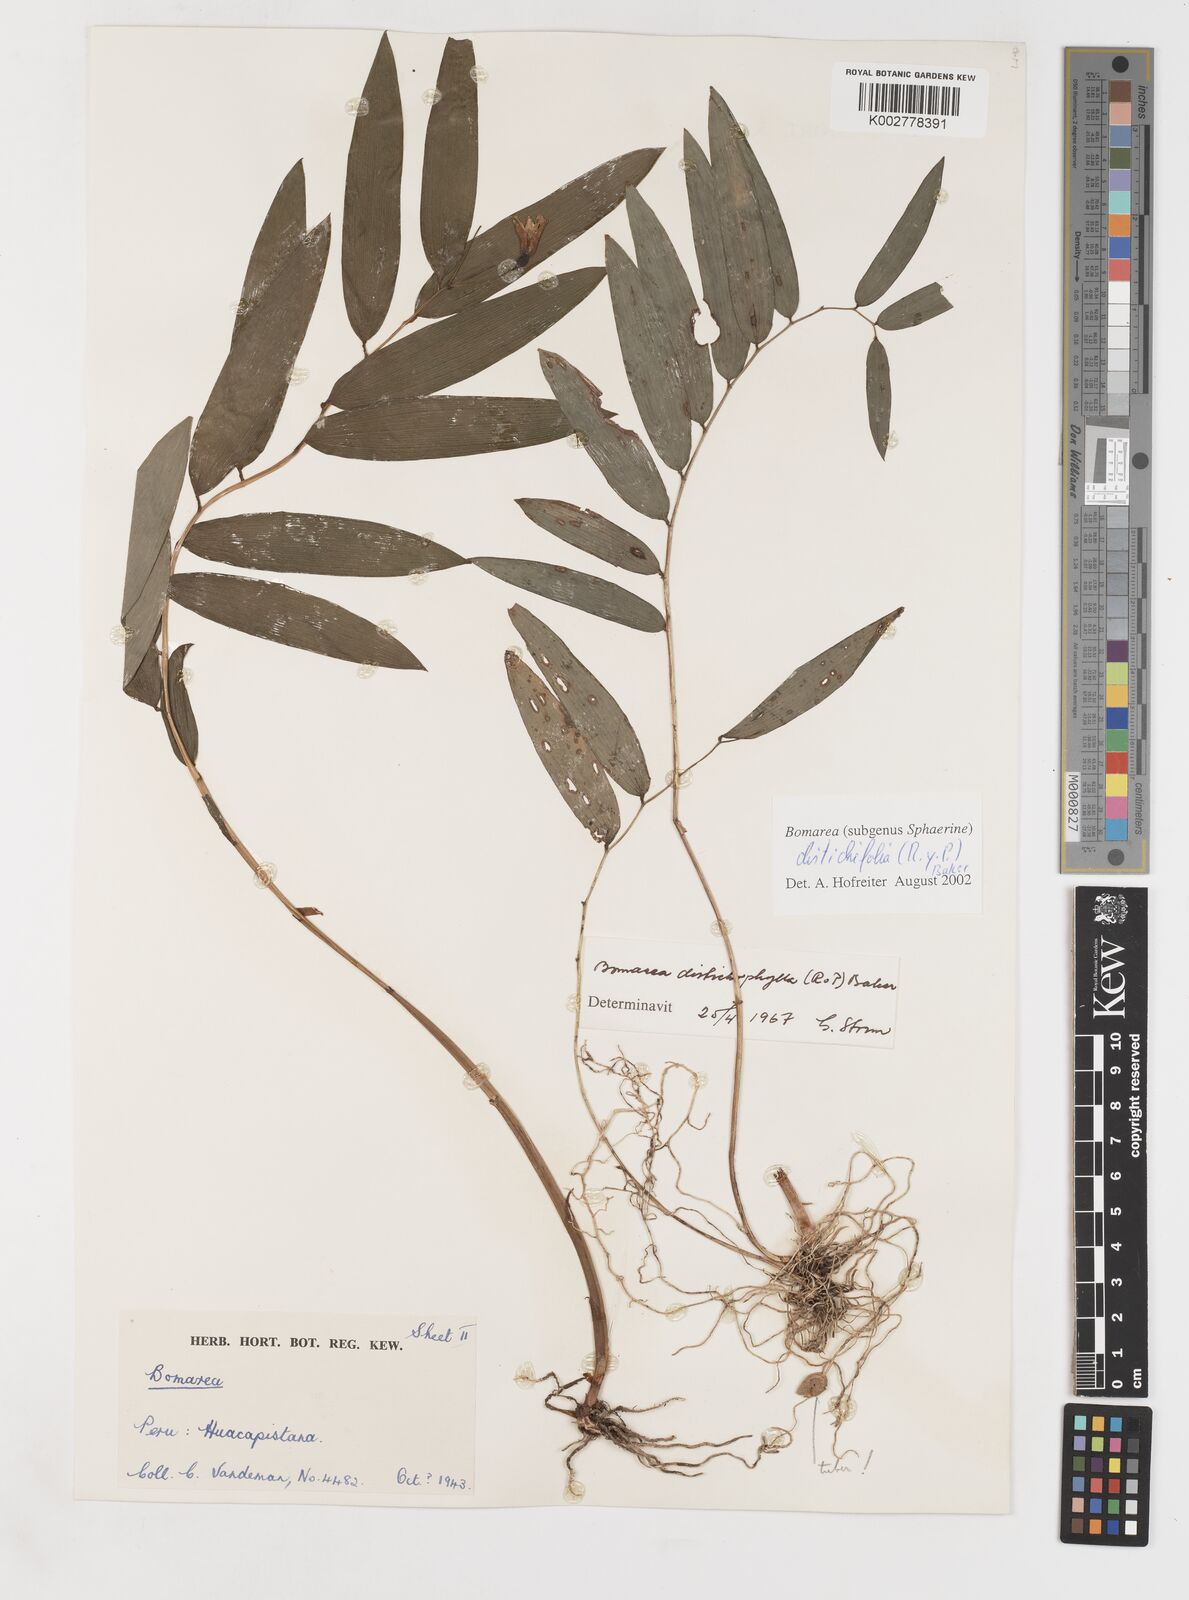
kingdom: Plantae
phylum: Tracheophyta
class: Liliopsida
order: Liliales
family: Alstroemeriaceae
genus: Bomarea
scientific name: Bomarea distichifolia
